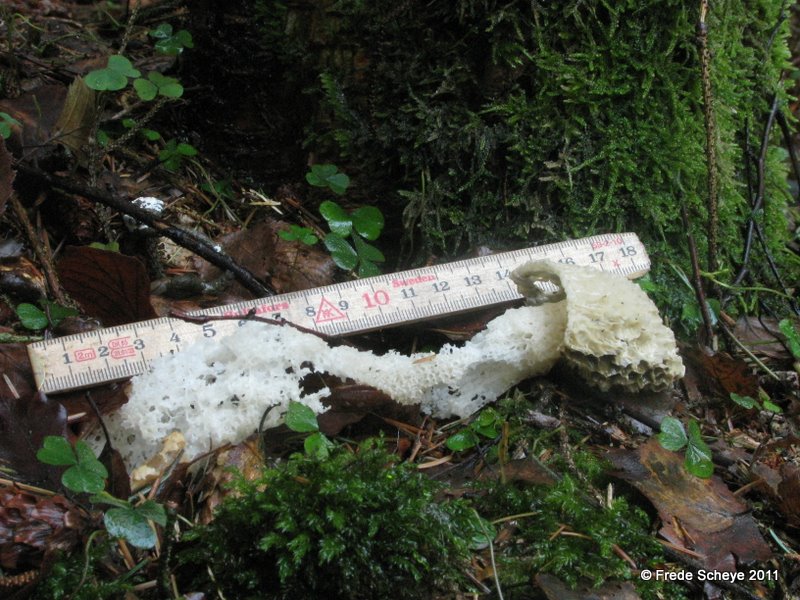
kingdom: Fungi
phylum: Basidiomycota
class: Agaricomycetes
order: Phallales
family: Phallaceae
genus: Phallus
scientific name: Phallus impudicus
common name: almindelig stinksvamp
